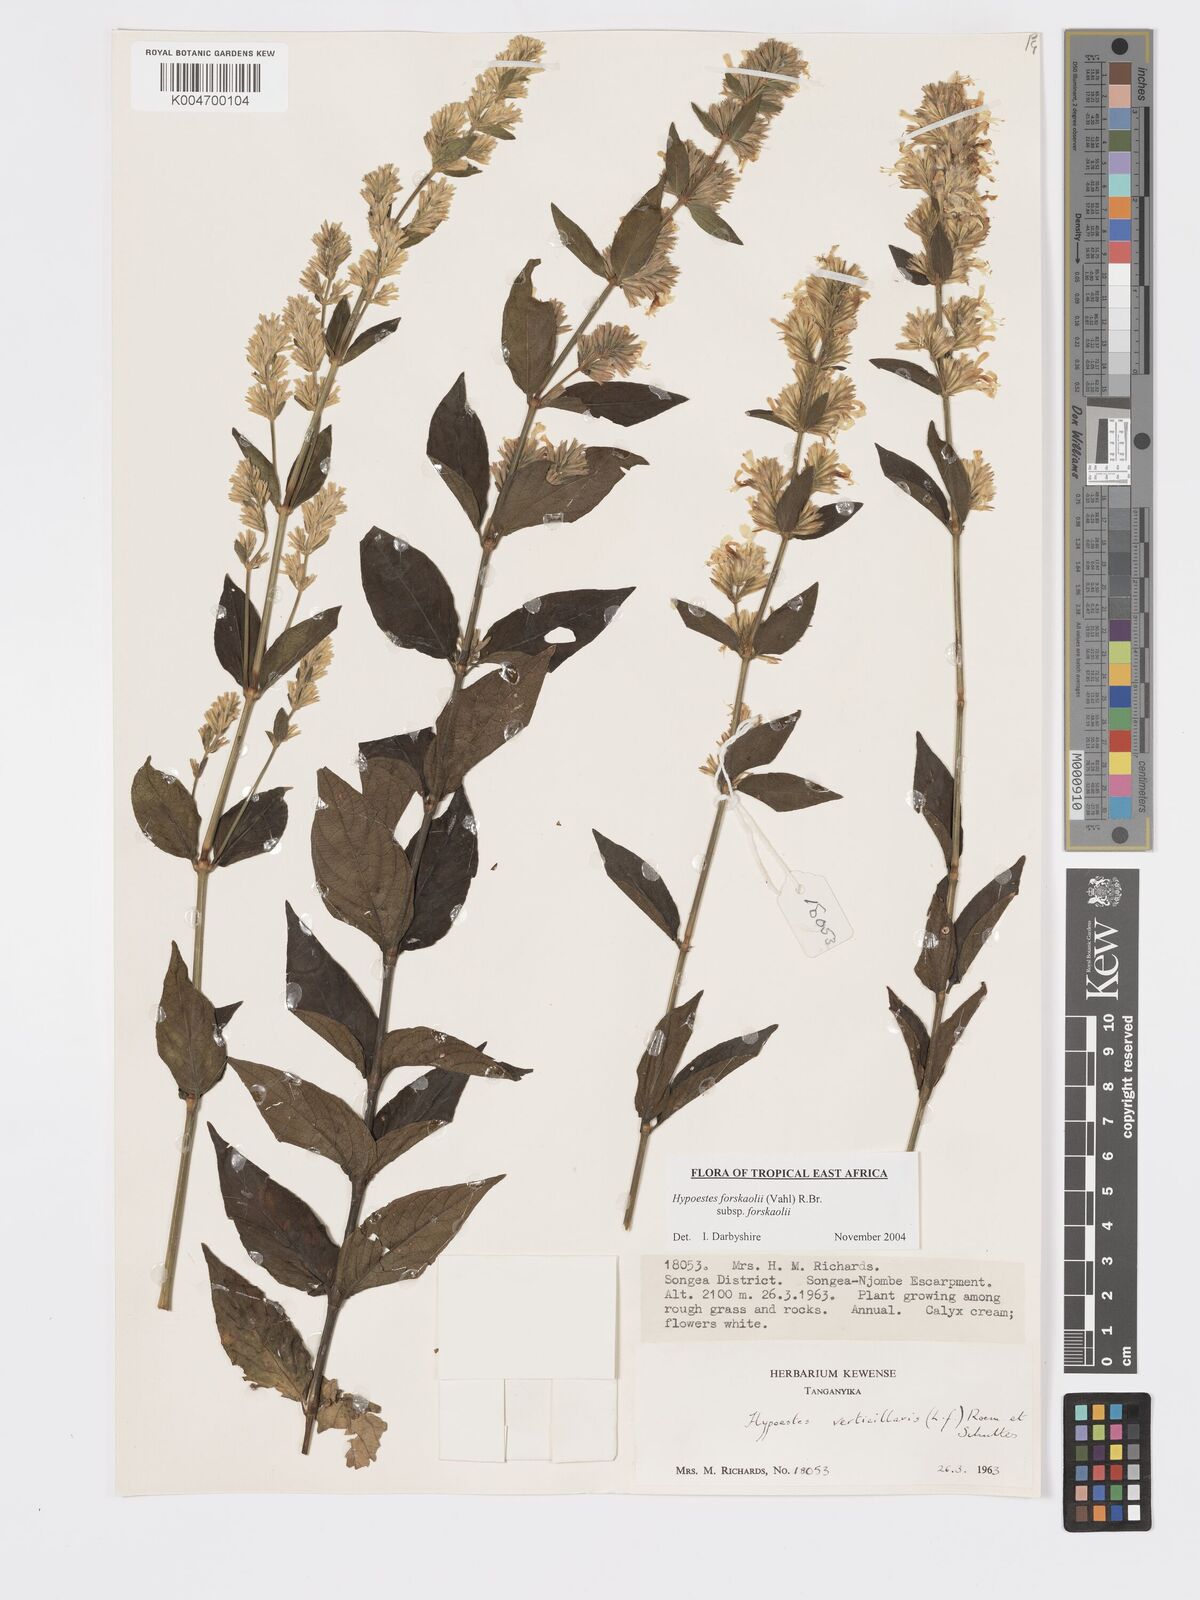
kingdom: Plantae
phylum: Tracheophyta
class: Magnoliopsida
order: Lamiales
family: Acanthaceae
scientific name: Acanthaceae
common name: Acanthaceae
